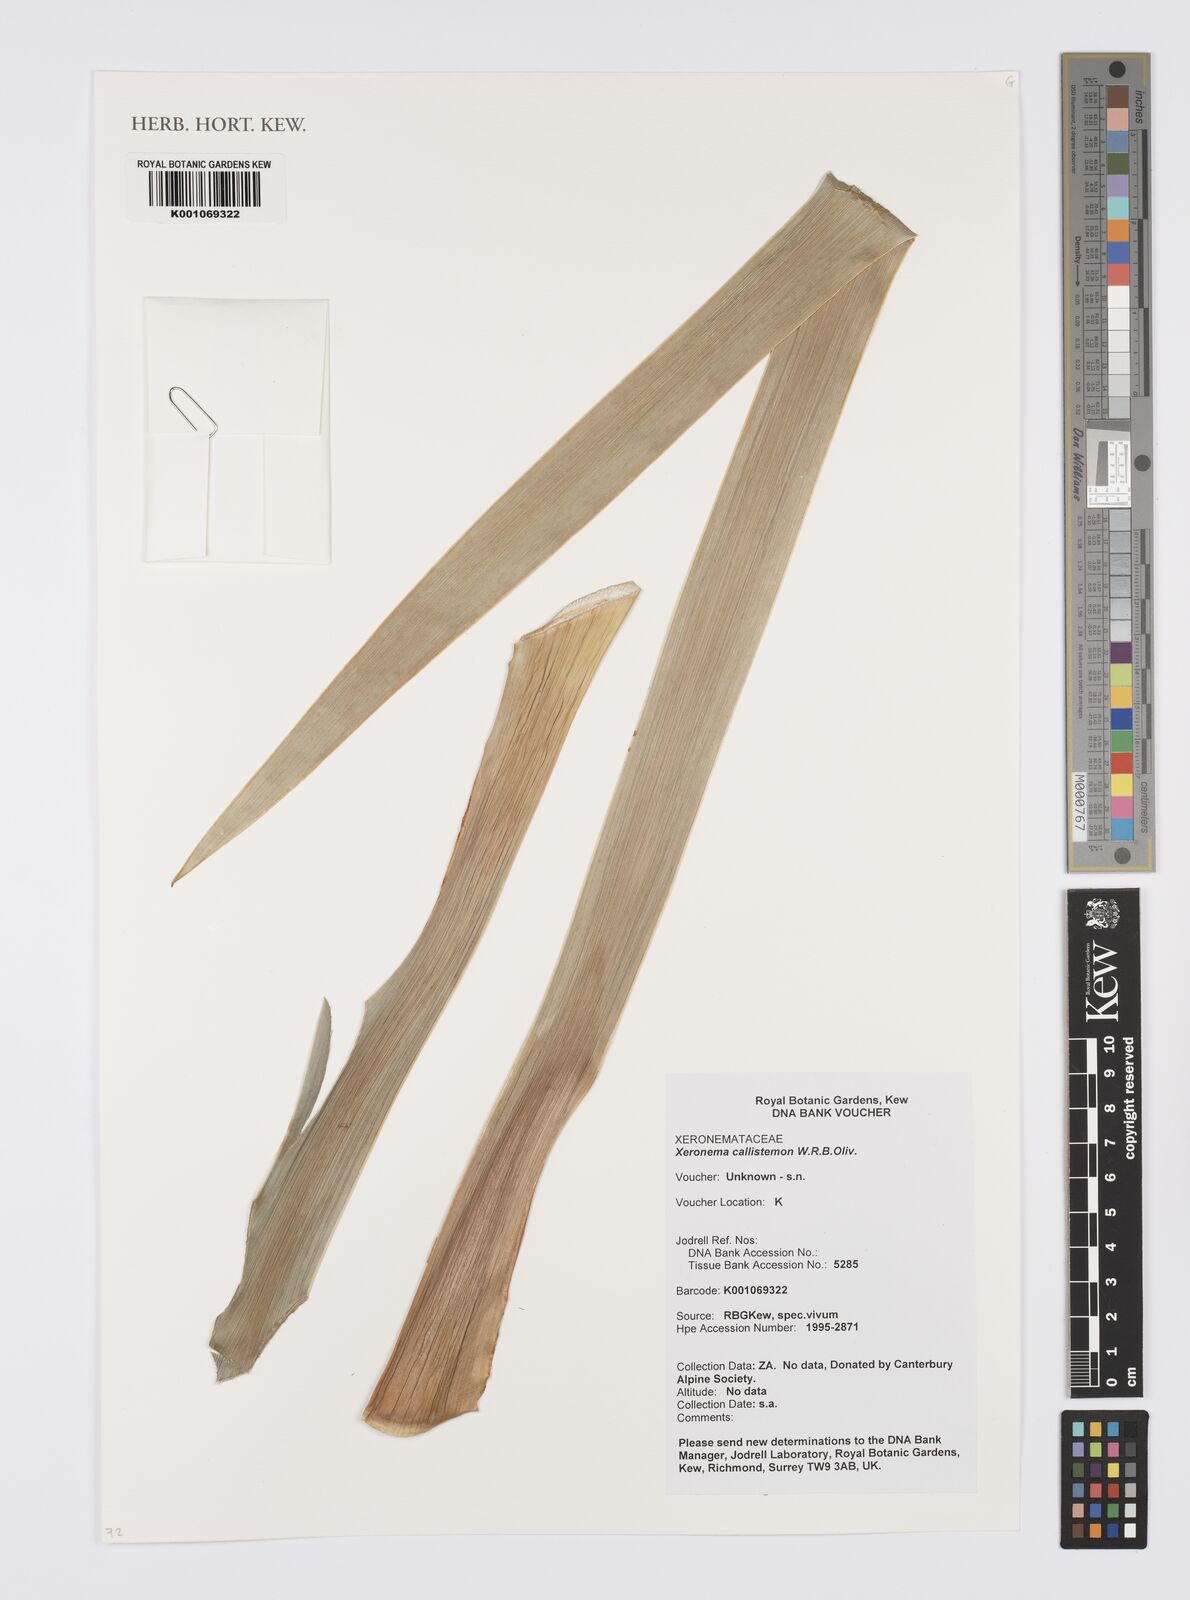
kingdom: Plantae
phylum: Tracheophyta
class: Liliopsida
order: Asparagales
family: Xeronemataceae
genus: Xeronema
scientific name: Xeronema callistemon
